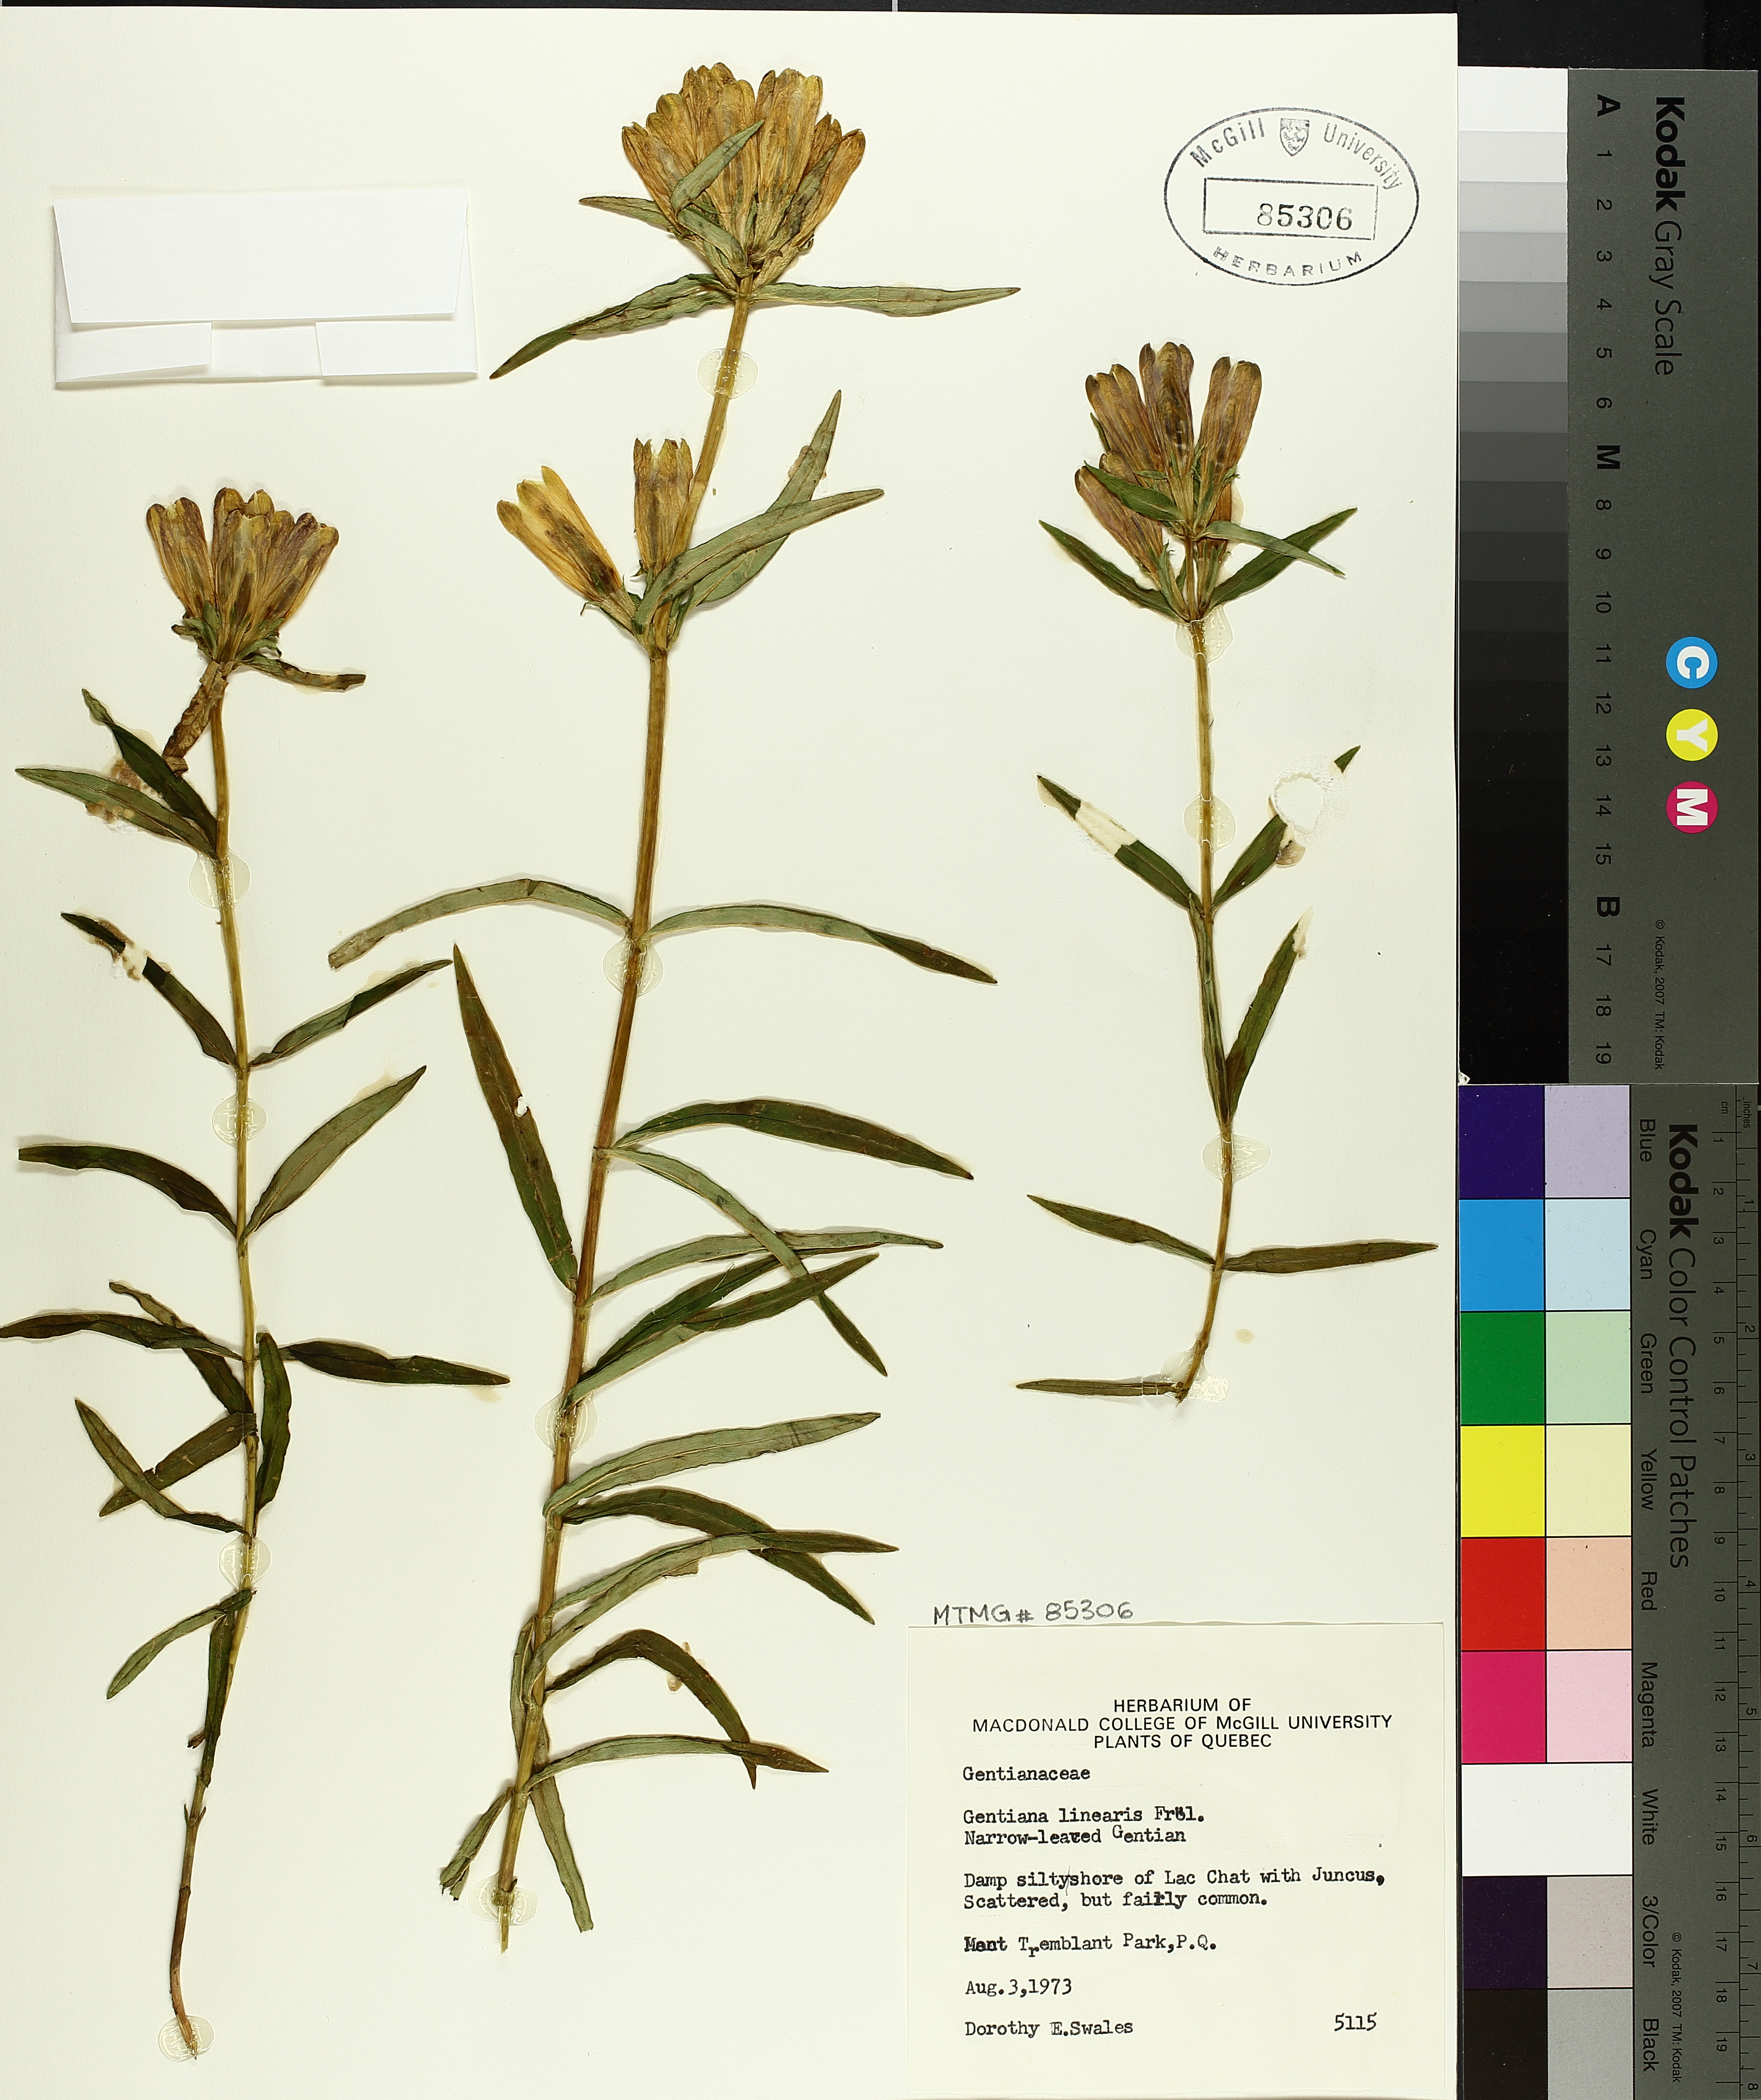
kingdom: Plantae
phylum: Tracheophyta
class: Magnoliopsida
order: Gentianales
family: Gentianaceae
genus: Gentiana
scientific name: Gentiana linearis
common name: Bastard gentian
